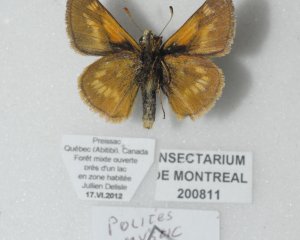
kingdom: Animalia
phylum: Arthropoda
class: Insecta
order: Lepidoptera
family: Hesperiidae
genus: Polites
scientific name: Polites
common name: Long Dash Skipper
